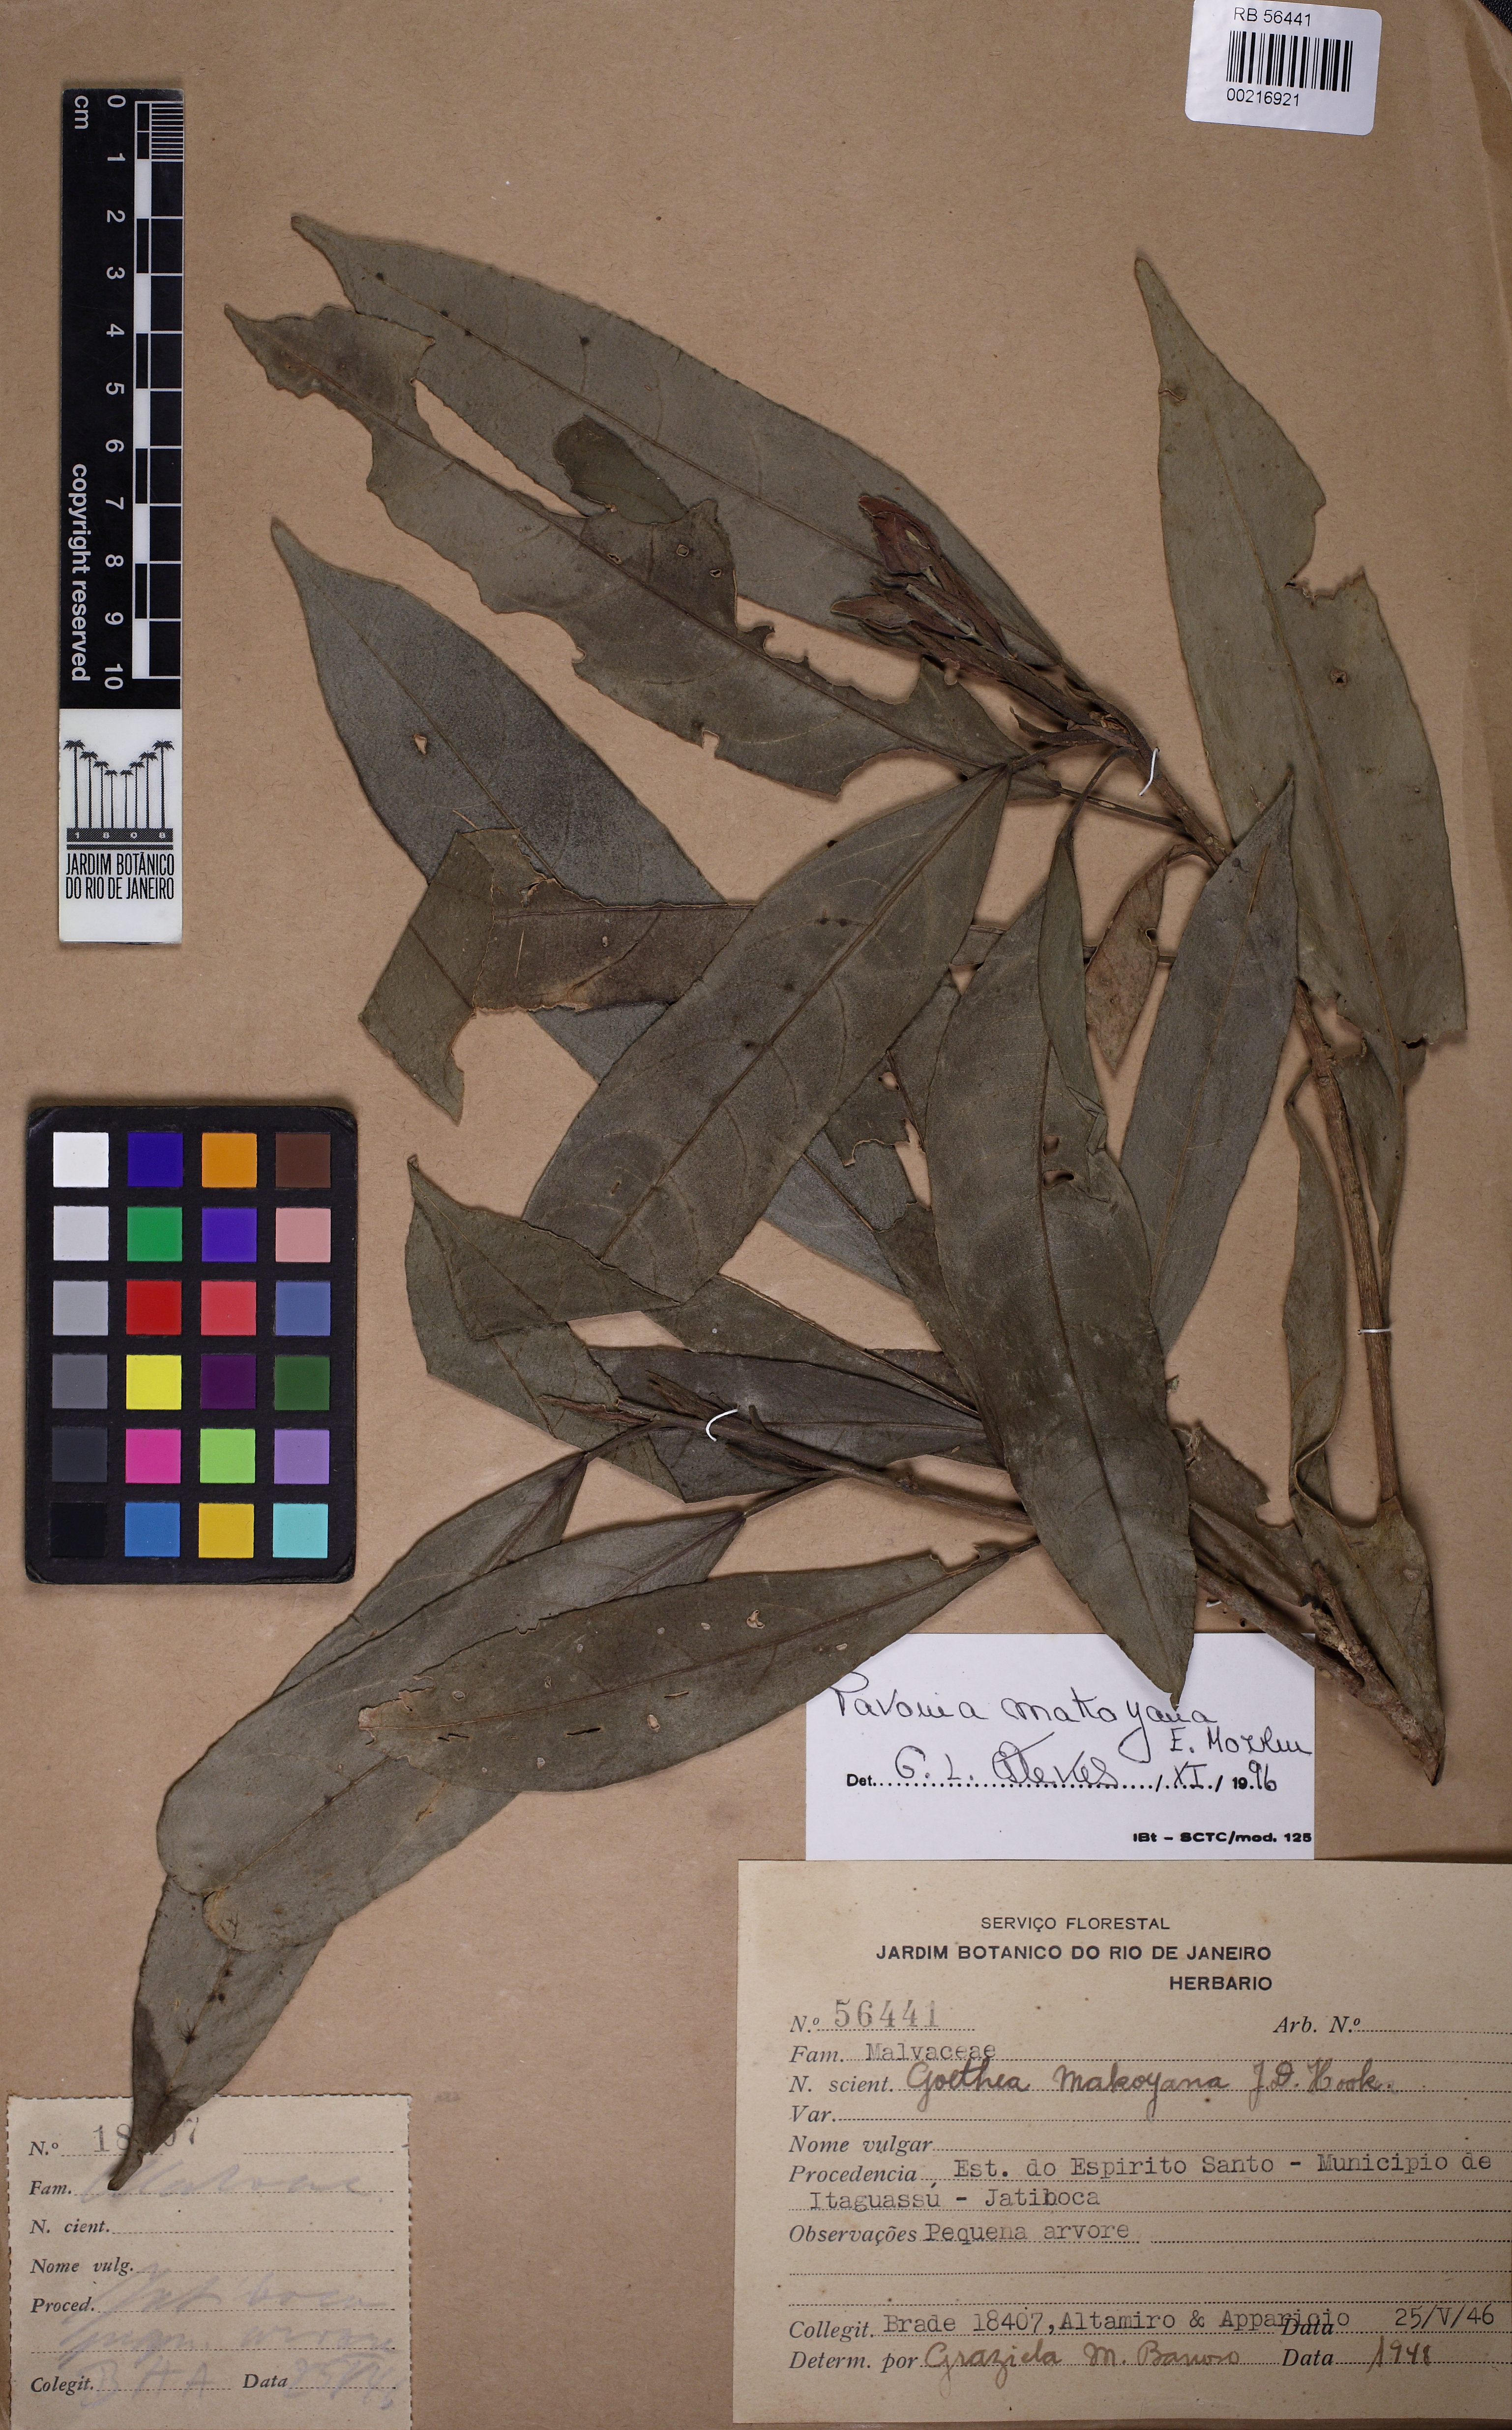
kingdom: Plantae
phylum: Tracheophyta
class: Magnoliopsida
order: Malvales
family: Malvaceae
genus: Pavonia
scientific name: Pavonia makoyana
